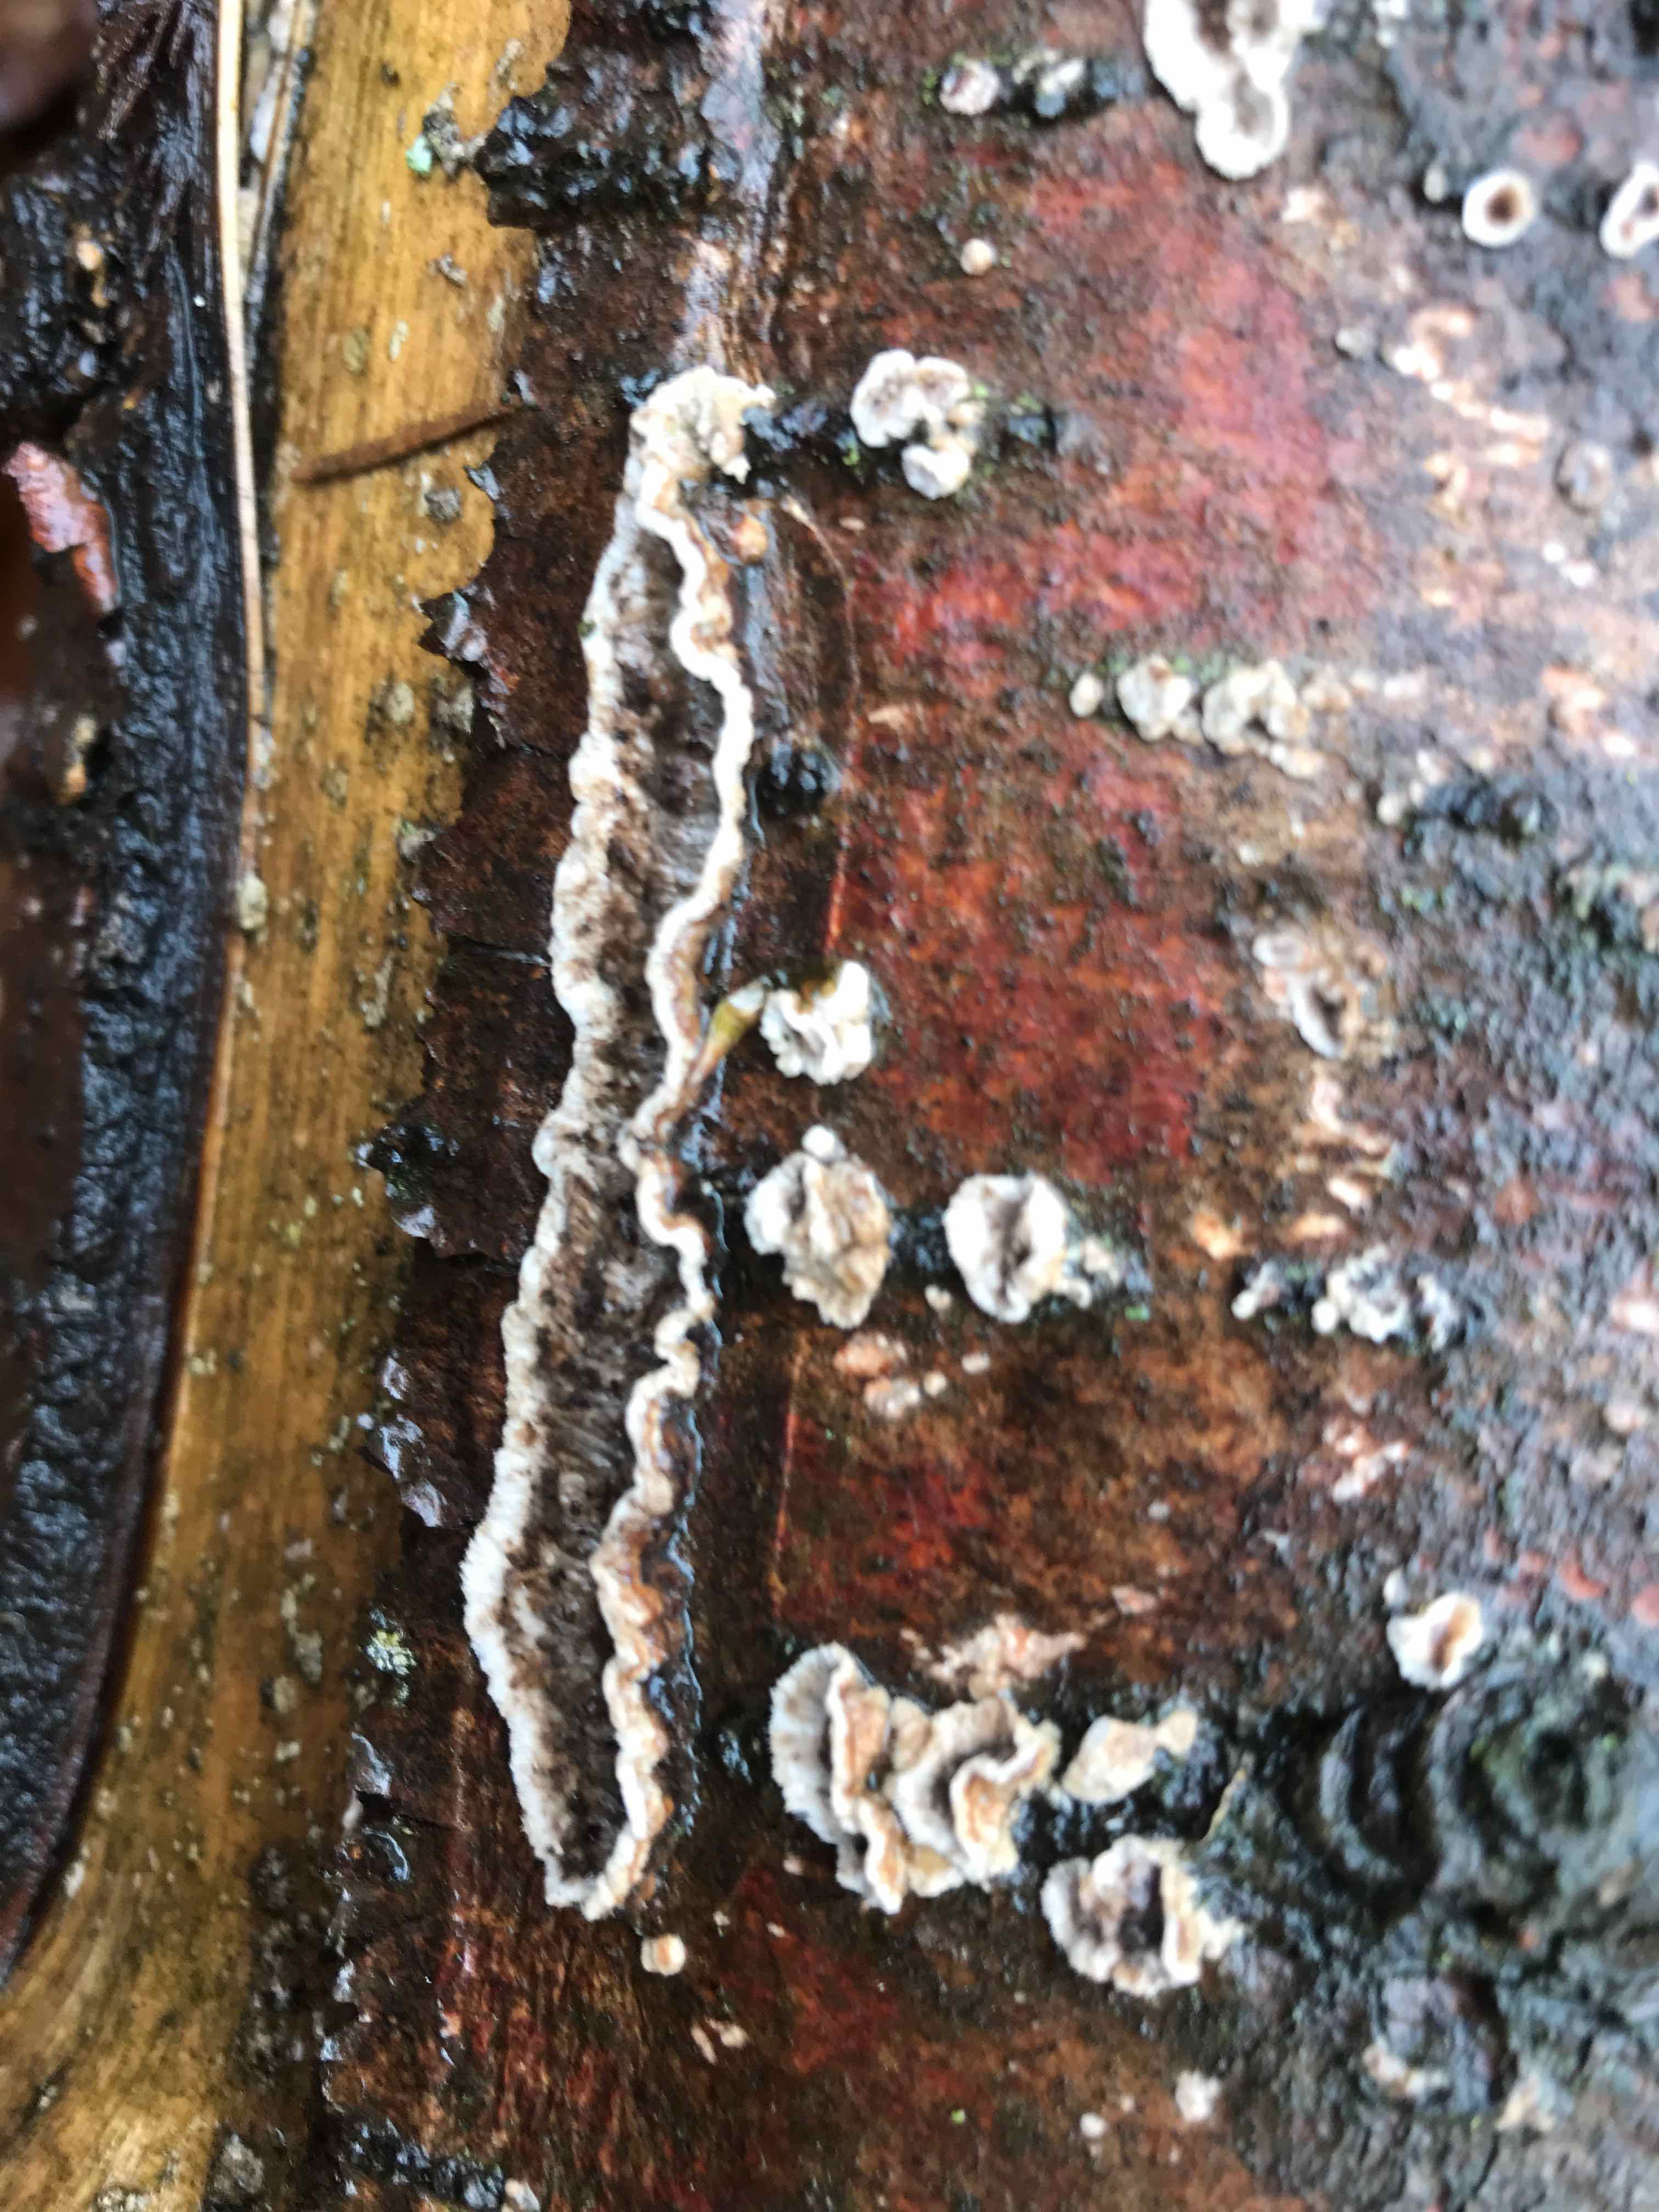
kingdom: Fungi
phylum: Basidiomycota
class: Agaricomycetes
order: Russulales
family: Stereaceae
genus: Stereum
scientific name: Stereum sanguinolentum
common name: blødende lædersvamp
